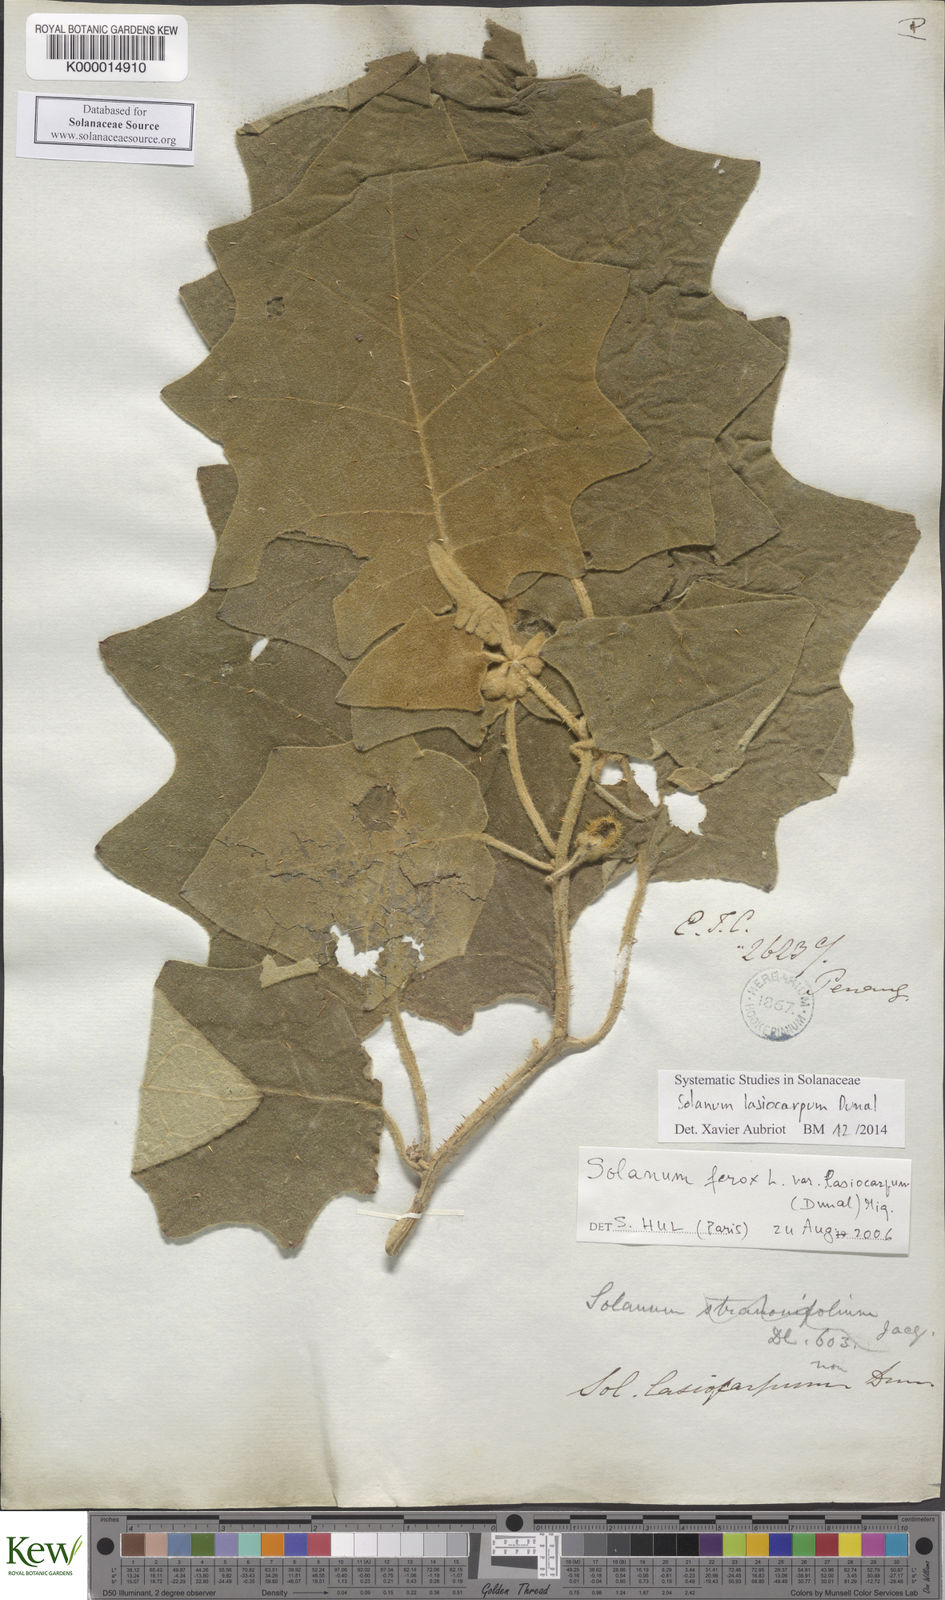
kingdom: Plantae
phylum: Tracheophyta
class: Magnoliopsida
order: Solanales
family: Solanaceae
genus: Solanum
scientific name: Solanum lasiocarpum
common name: Indian nightshade
